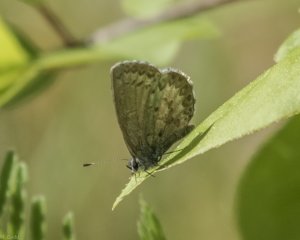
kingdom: Animalia
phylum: Arthropoda
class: Insecta
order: Lepidoptera
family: Lycaenidae
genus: Celastrina
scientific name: Celastrina lucia
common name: Northern Spring Azure
